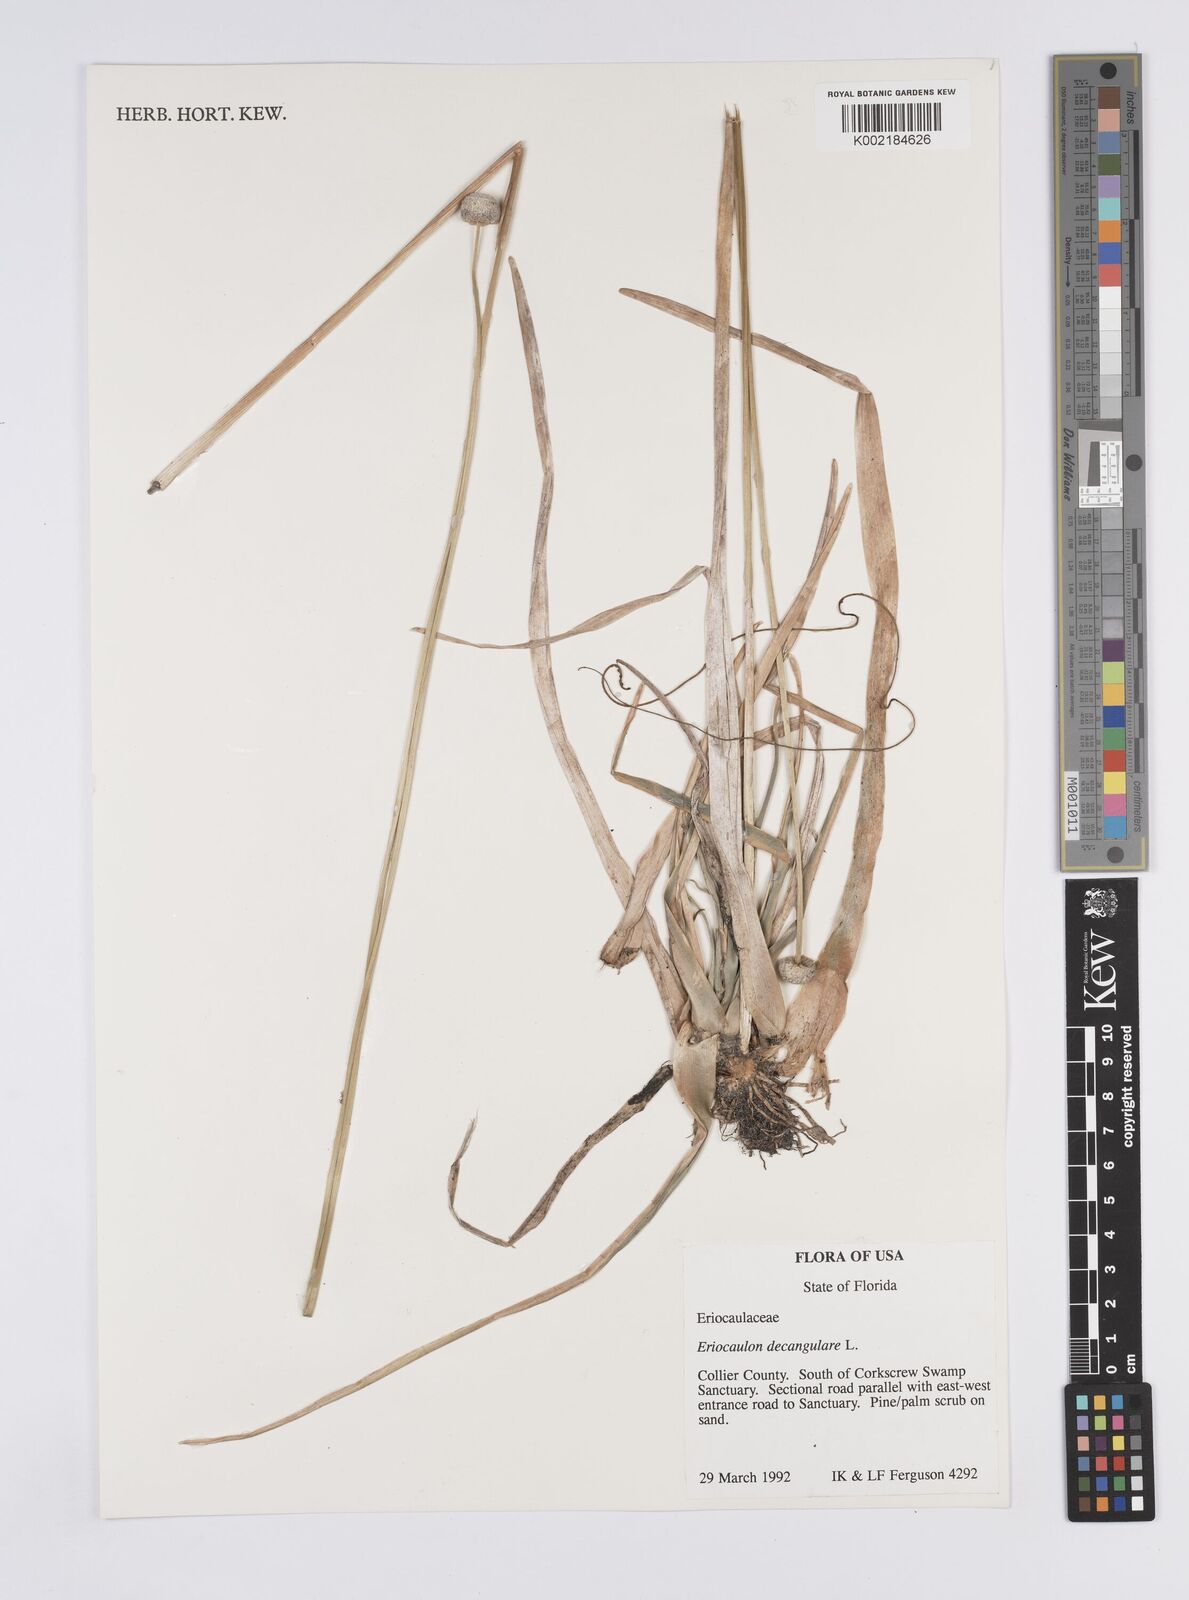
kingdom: Plantae
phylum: Tracheophyta
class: Liliopsida
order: Poales
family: Eriocaulaceae
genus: Eriocaulon
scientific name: Eriocaulon decangulare
